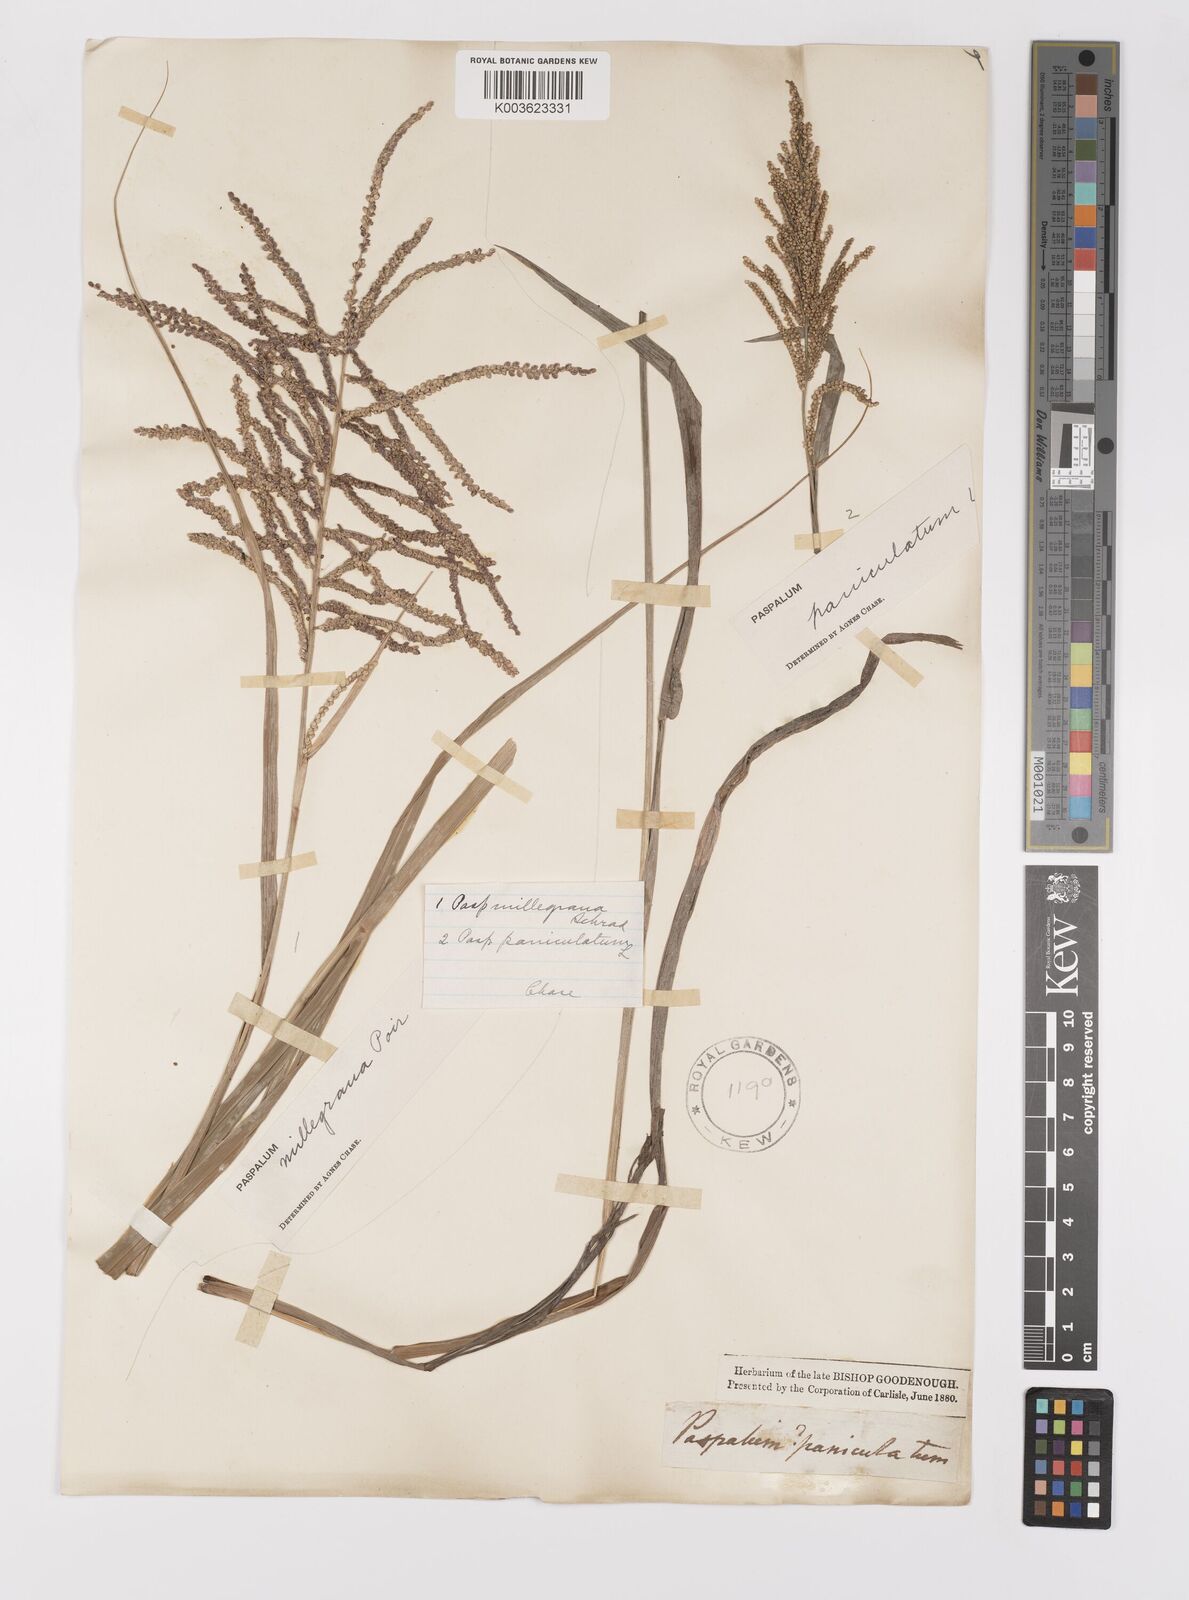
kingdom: Plantae
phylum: Tracheophyta
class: Liliopsida
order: Poales
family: Poaceae
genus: Paspalum
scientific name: Paspalum paniculatum
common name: Arrocillo
